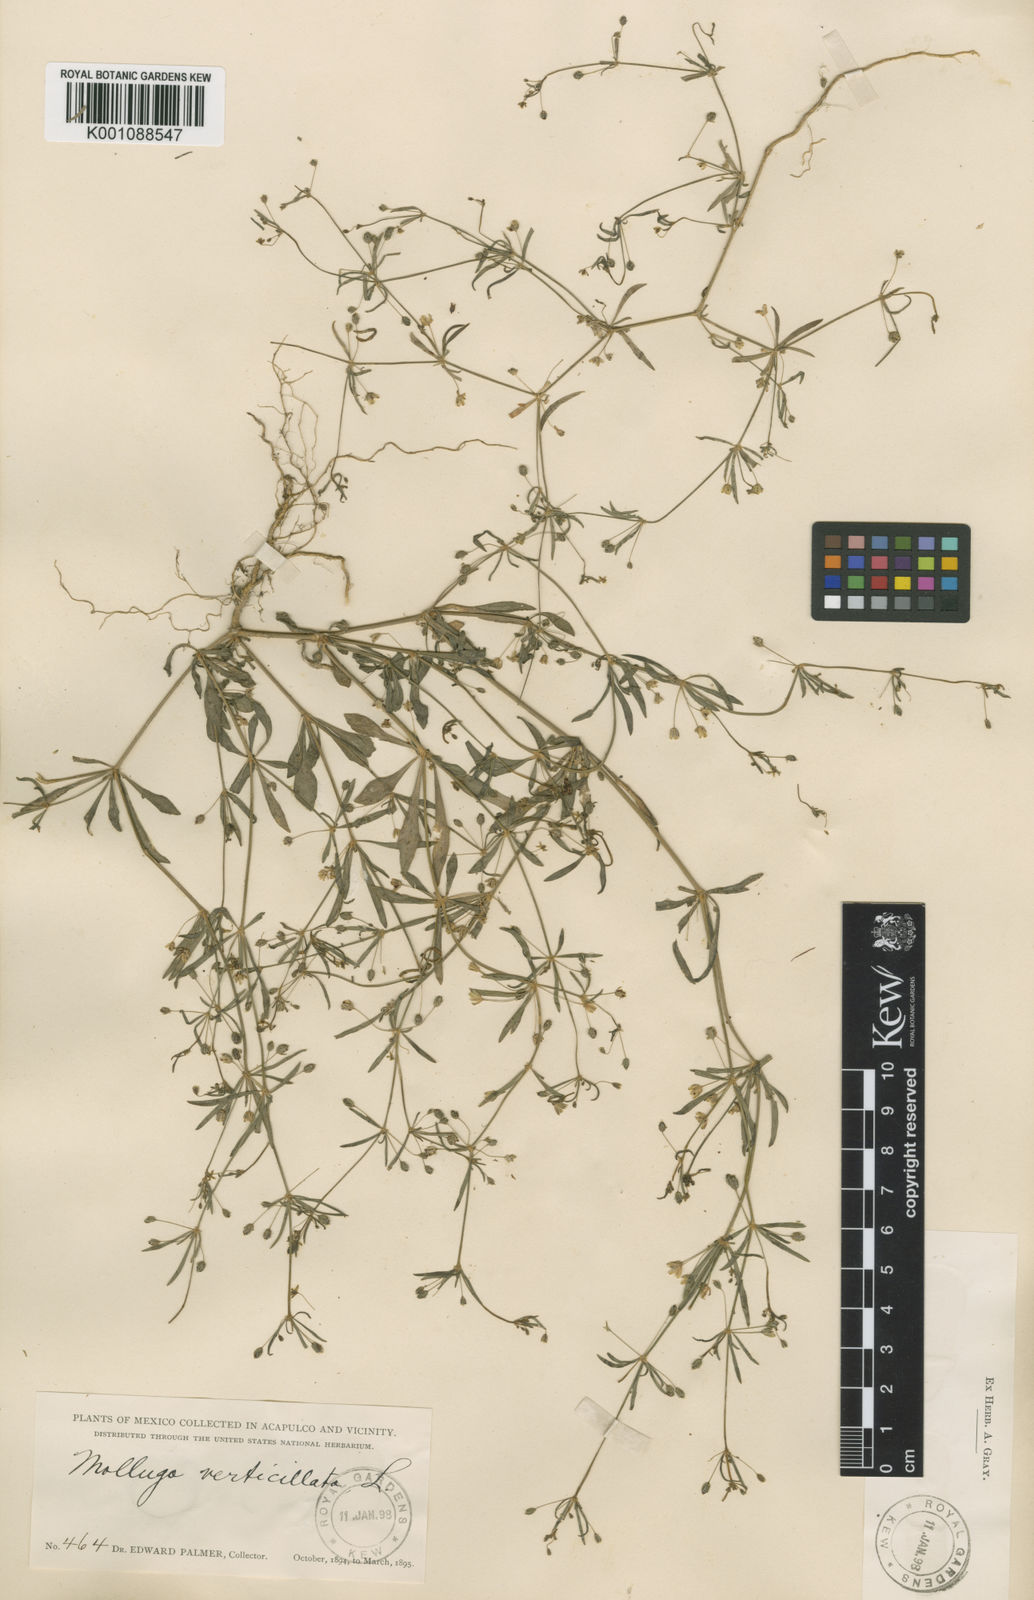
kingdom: Plantae
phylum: Tracheophyta
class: Magnoliopsida
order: Caryophyllales
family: Molluginaceae
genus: Mollugo
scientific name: Mollugo verticillata
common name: Green carpetweed
